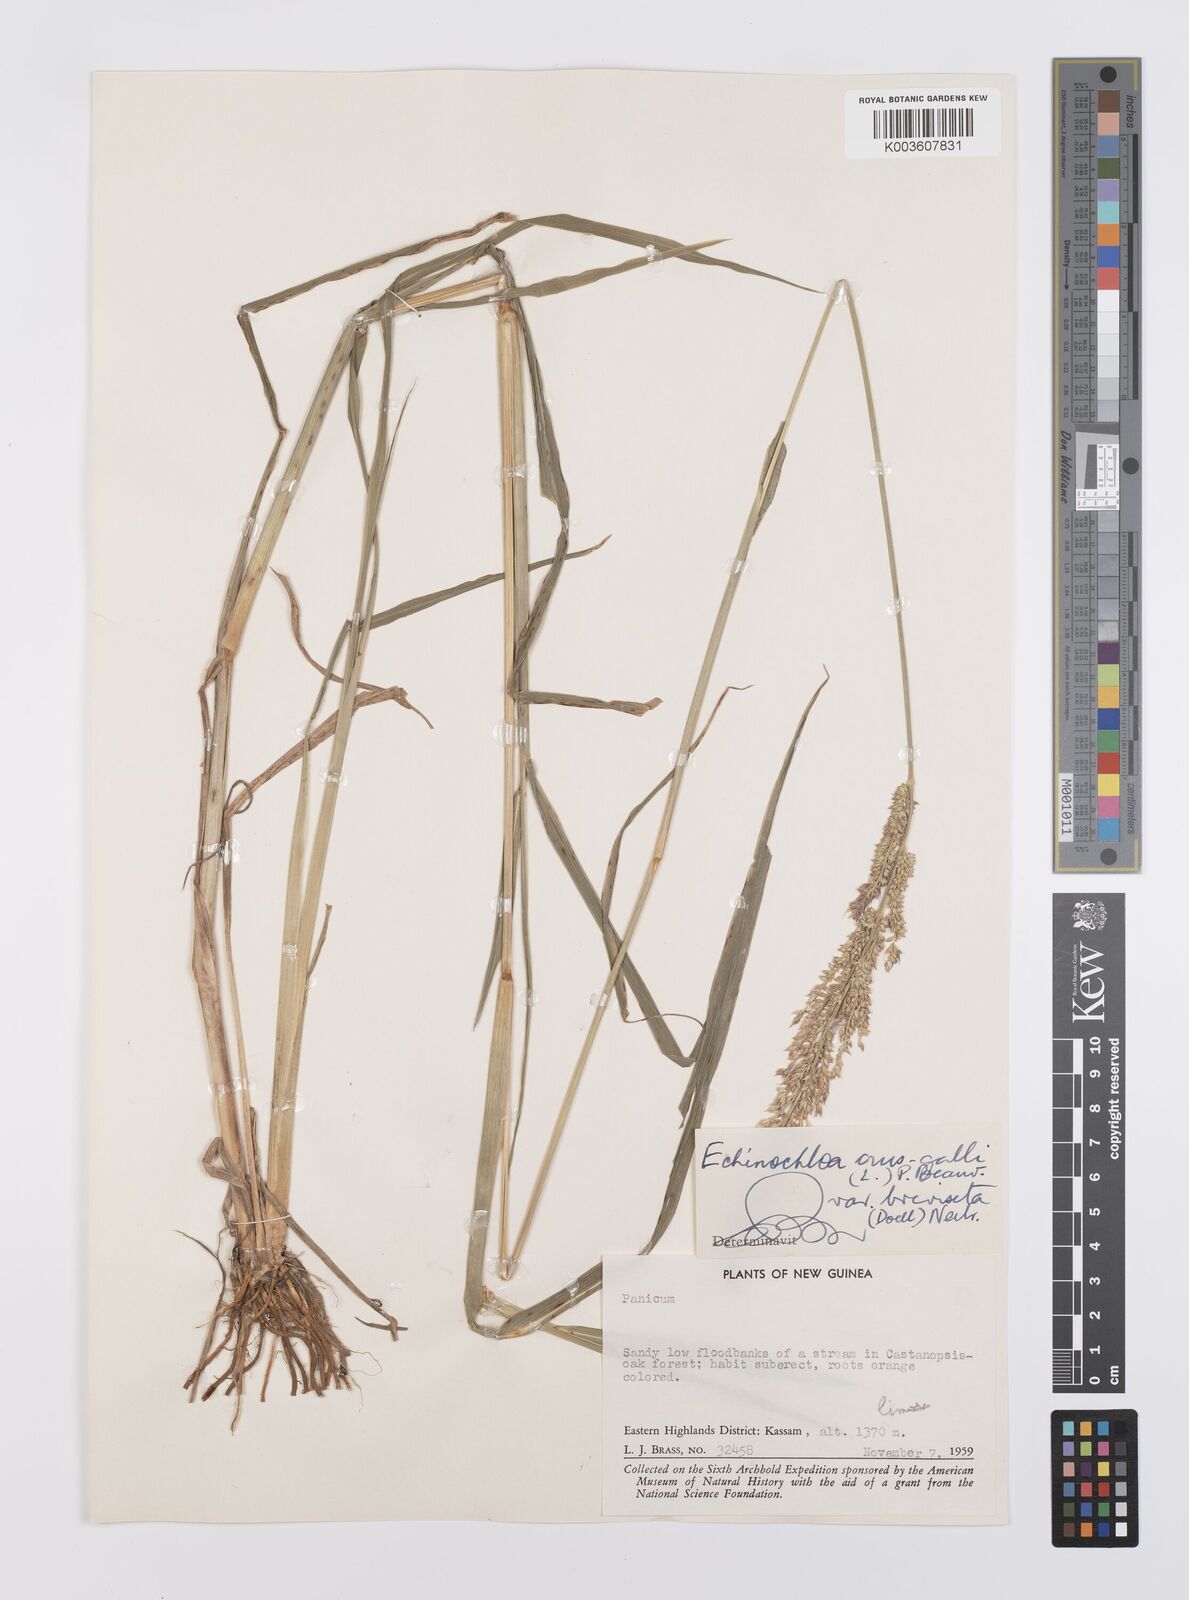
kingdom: Plantae
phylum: Tracheophyta
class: Liliopsida
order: Poales
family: Poaceae
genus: Echinochloa
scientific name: Echinochloa crus-galli
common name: Cockspur
